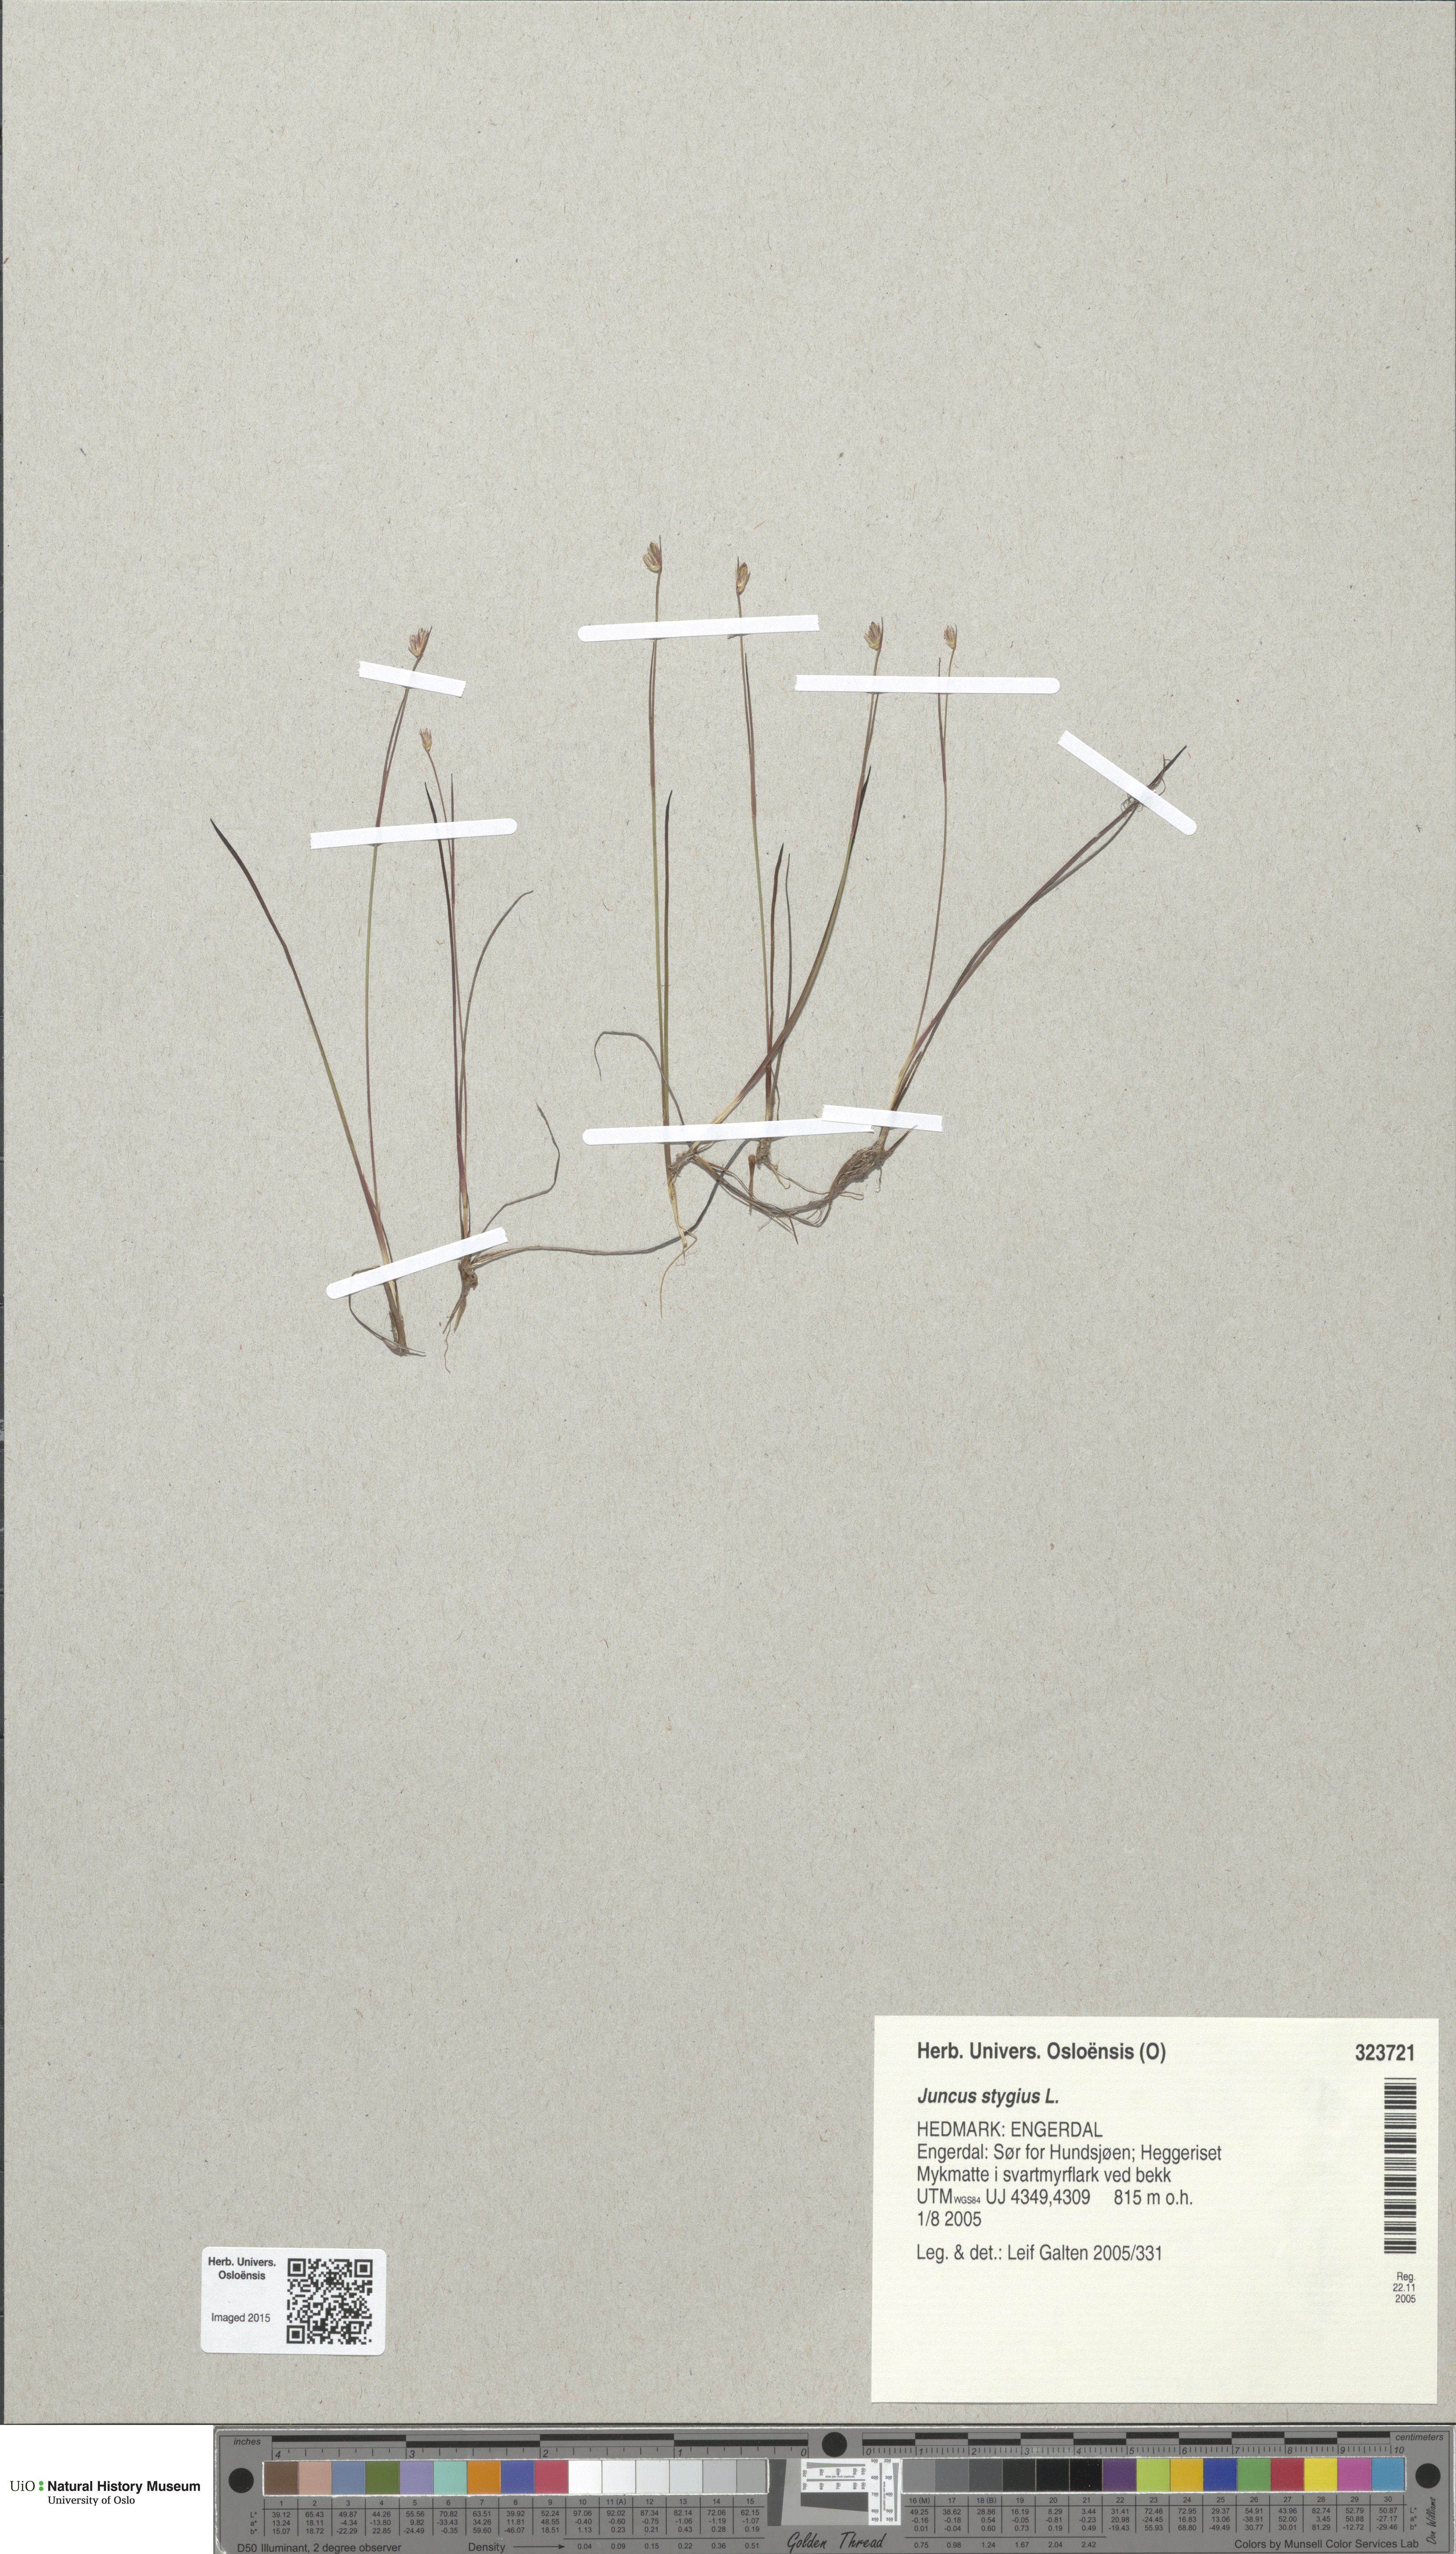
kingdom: Plantae
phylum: Tracheophyta
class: Liliopsida
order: Poales
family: Juncaceae
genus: Juncus
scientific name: Juncus stygius
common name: Bog rush
